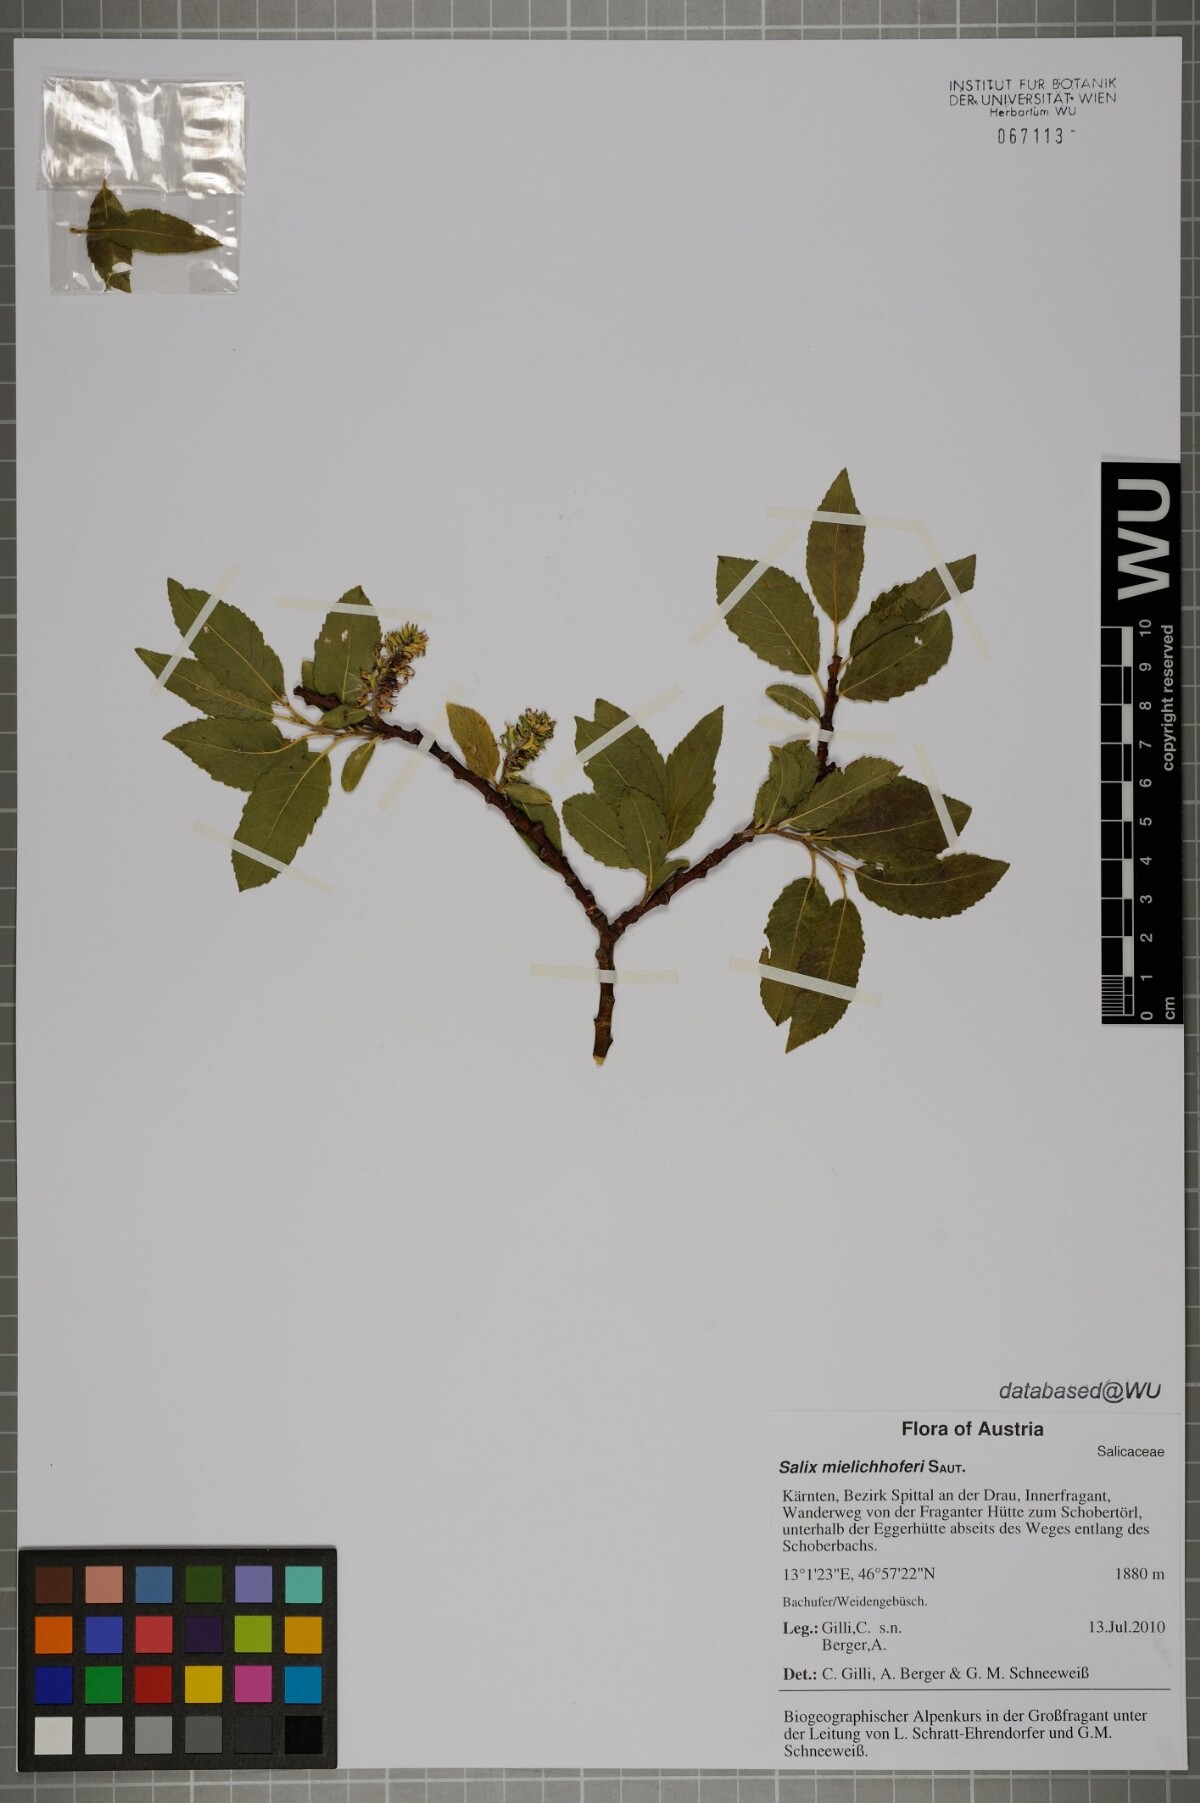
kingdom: Plantae
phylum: Tracheophyta
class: Magnoliopsida
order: Malpighiales
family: Salicaceae
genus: Salix
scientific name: Salix mielichhoferi
